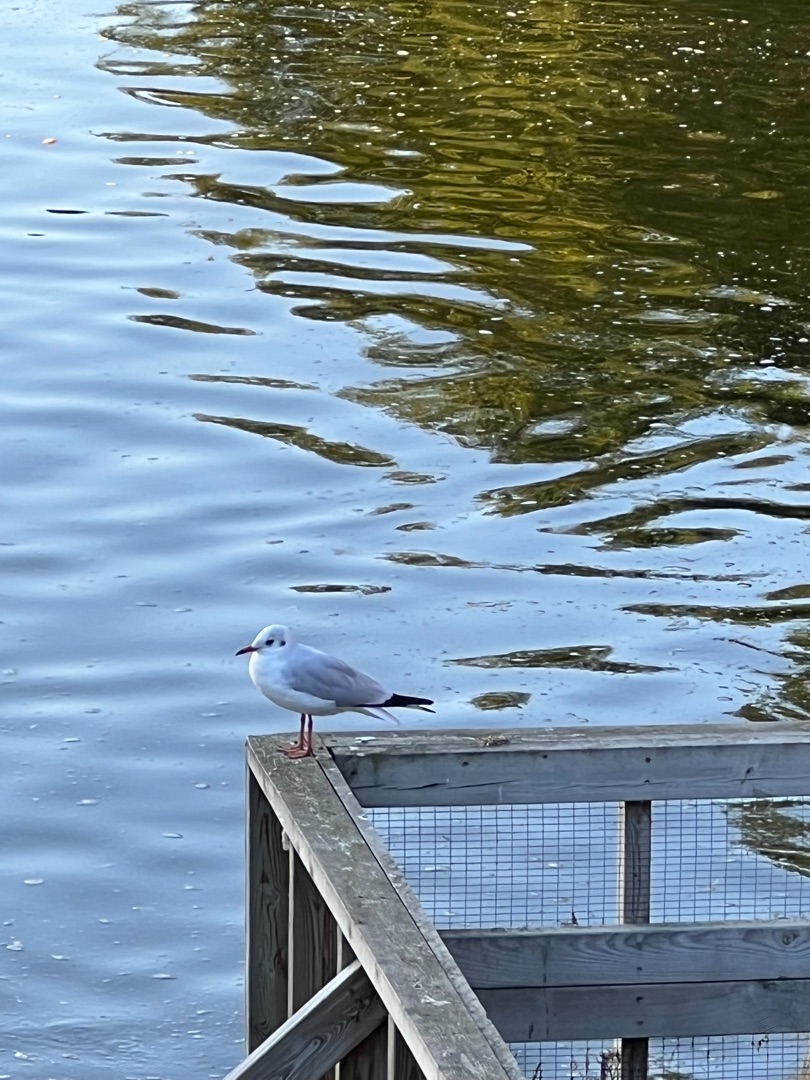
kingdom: Animalia
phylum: Chordata
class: Aves
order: Charadriiformes
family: Laridae
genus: Chroicocephalus
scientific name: Chroicocephalus ridibundus
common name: Hættemåge
